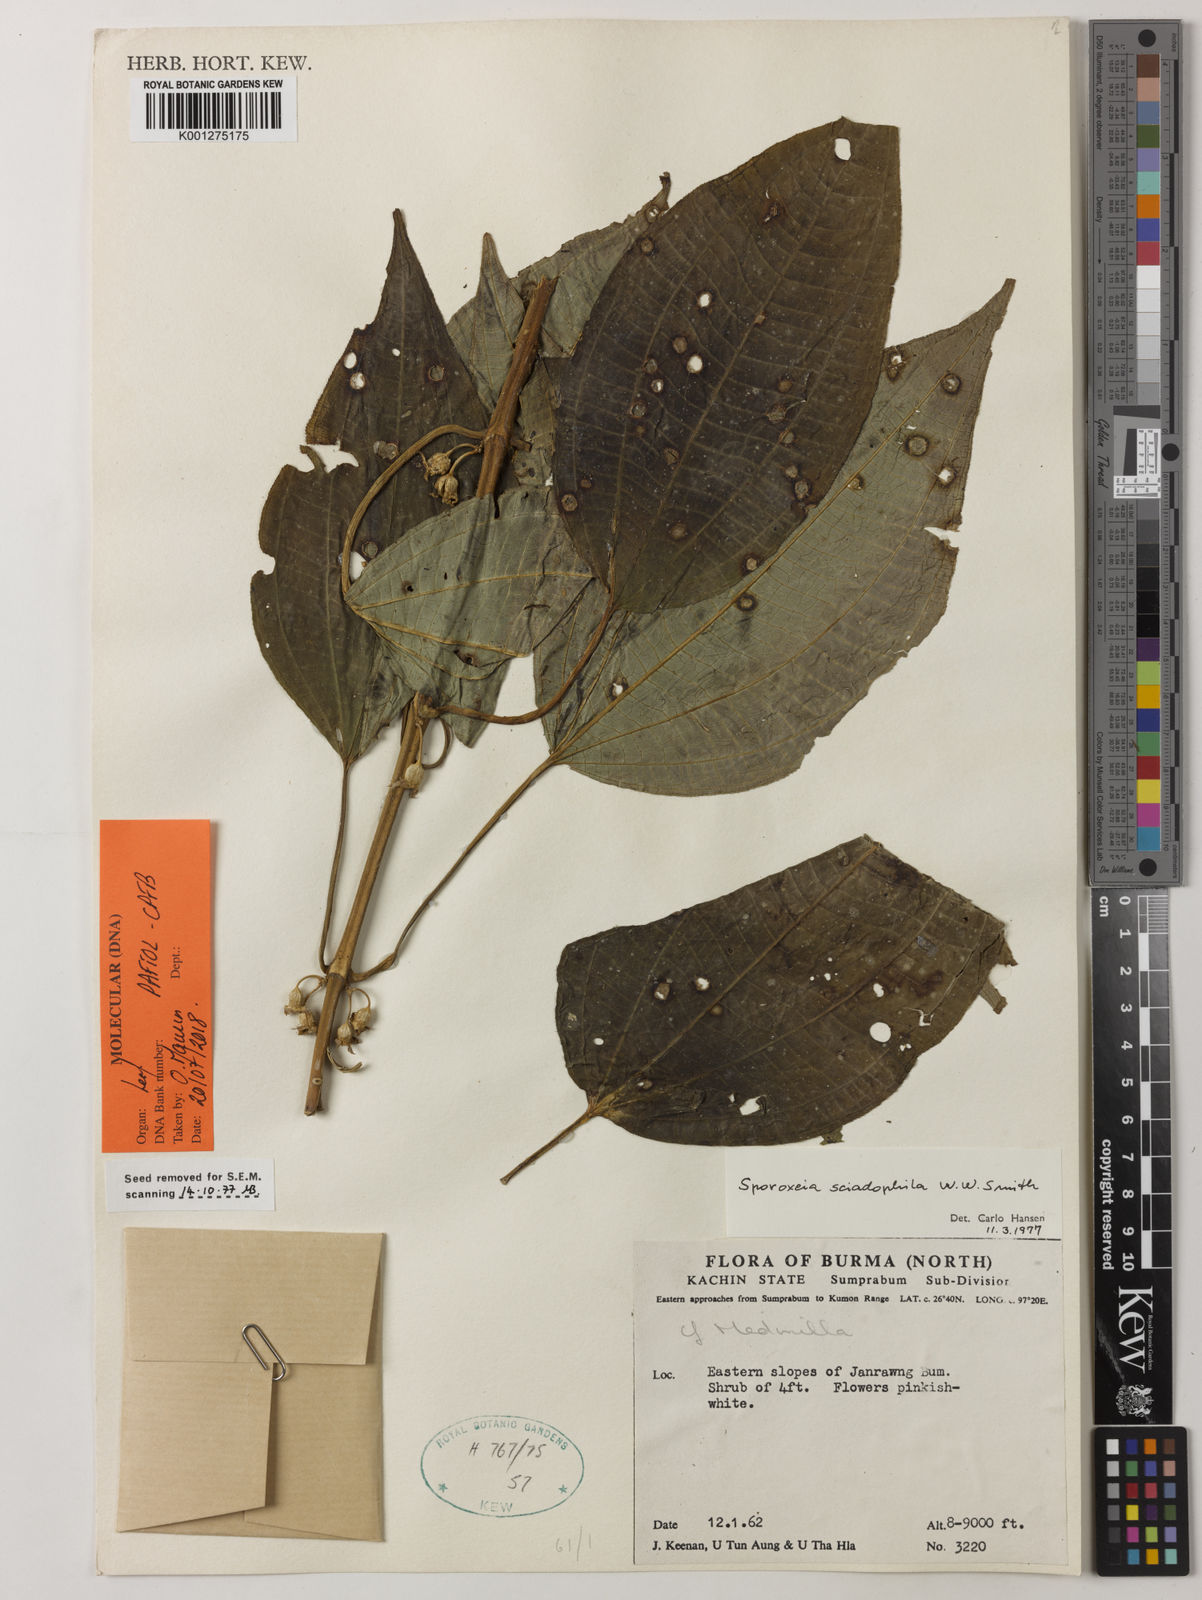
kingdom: Plantae
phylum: Tracheophyta
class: Magnoliopsida
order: Myrtales
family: Melastomataceae
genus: Sporoxeia
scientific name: Sporoxeia sciadophila
